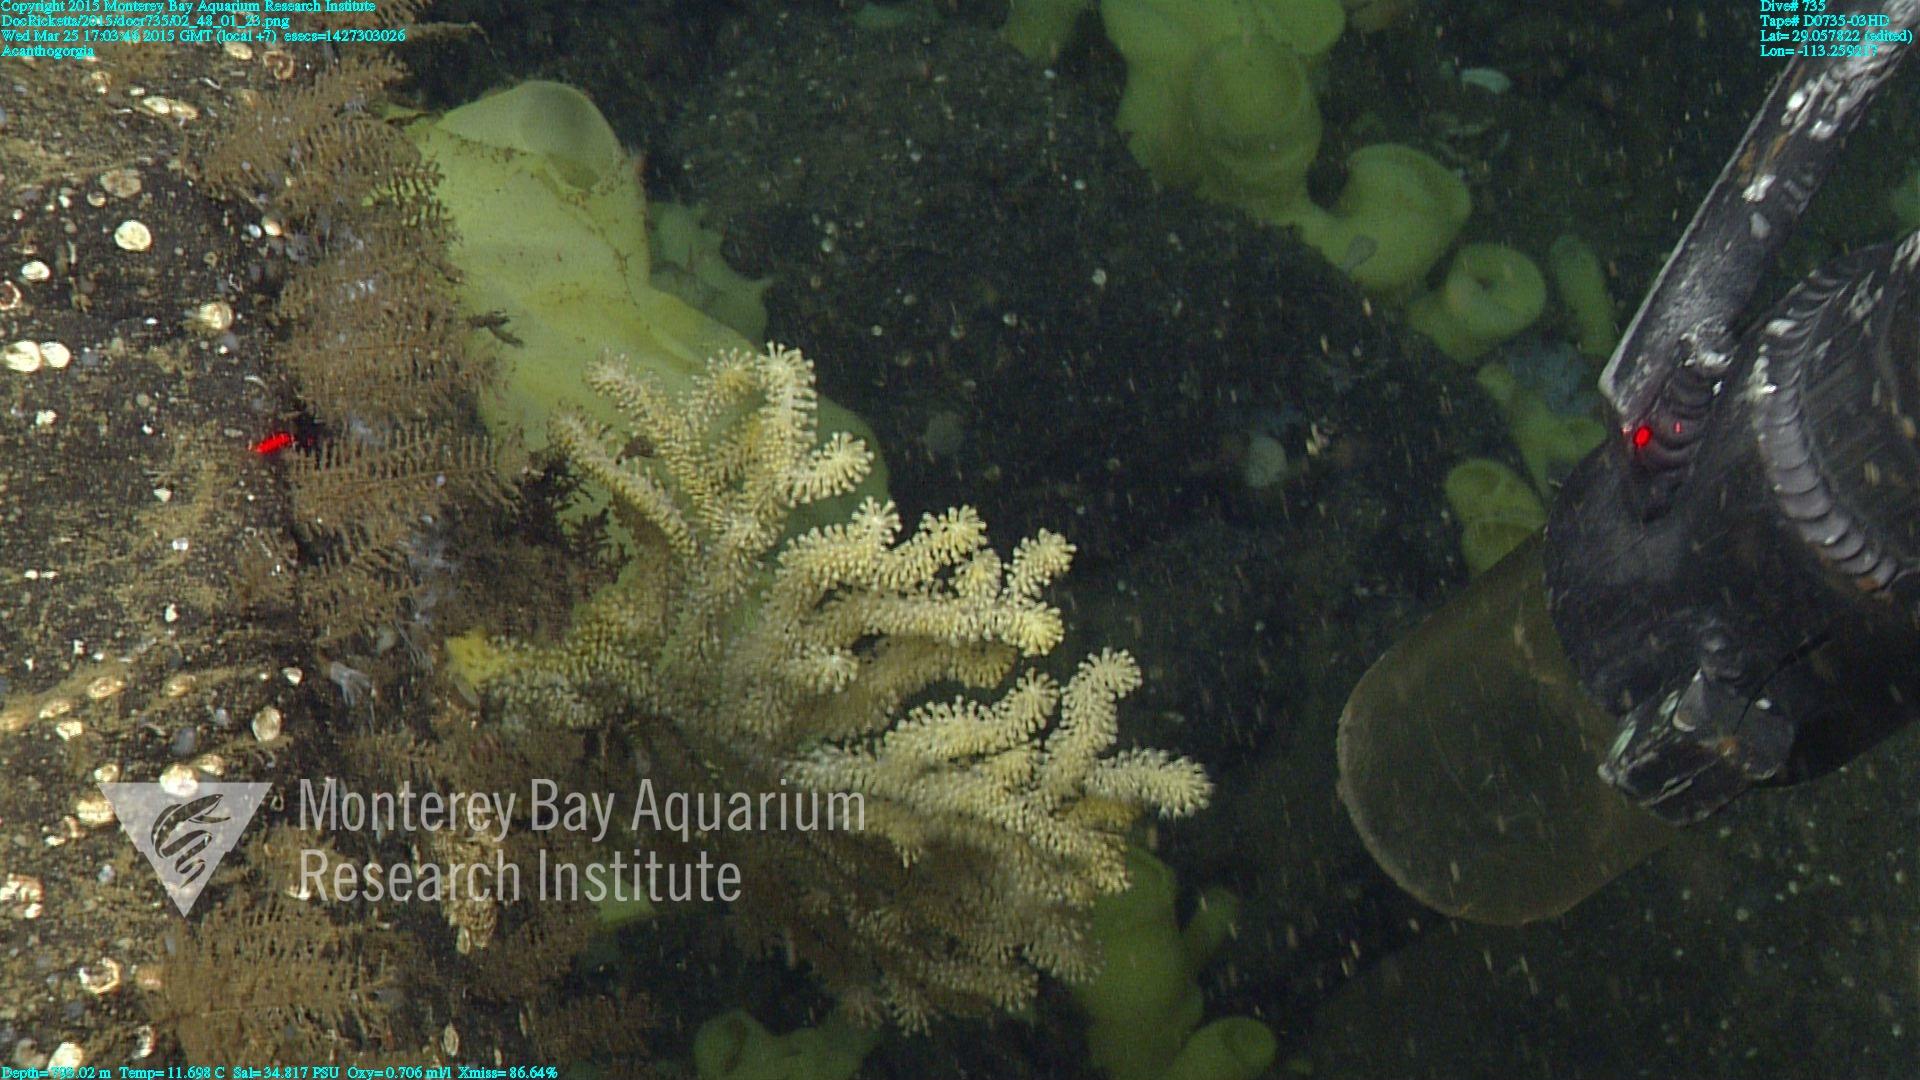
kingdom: Animalia
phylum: Cnidaria
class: Anthozoa
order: Malacalcyonacea
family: Paramuriceidae
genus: Acanthogorgia
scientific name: Acanthogorgia
